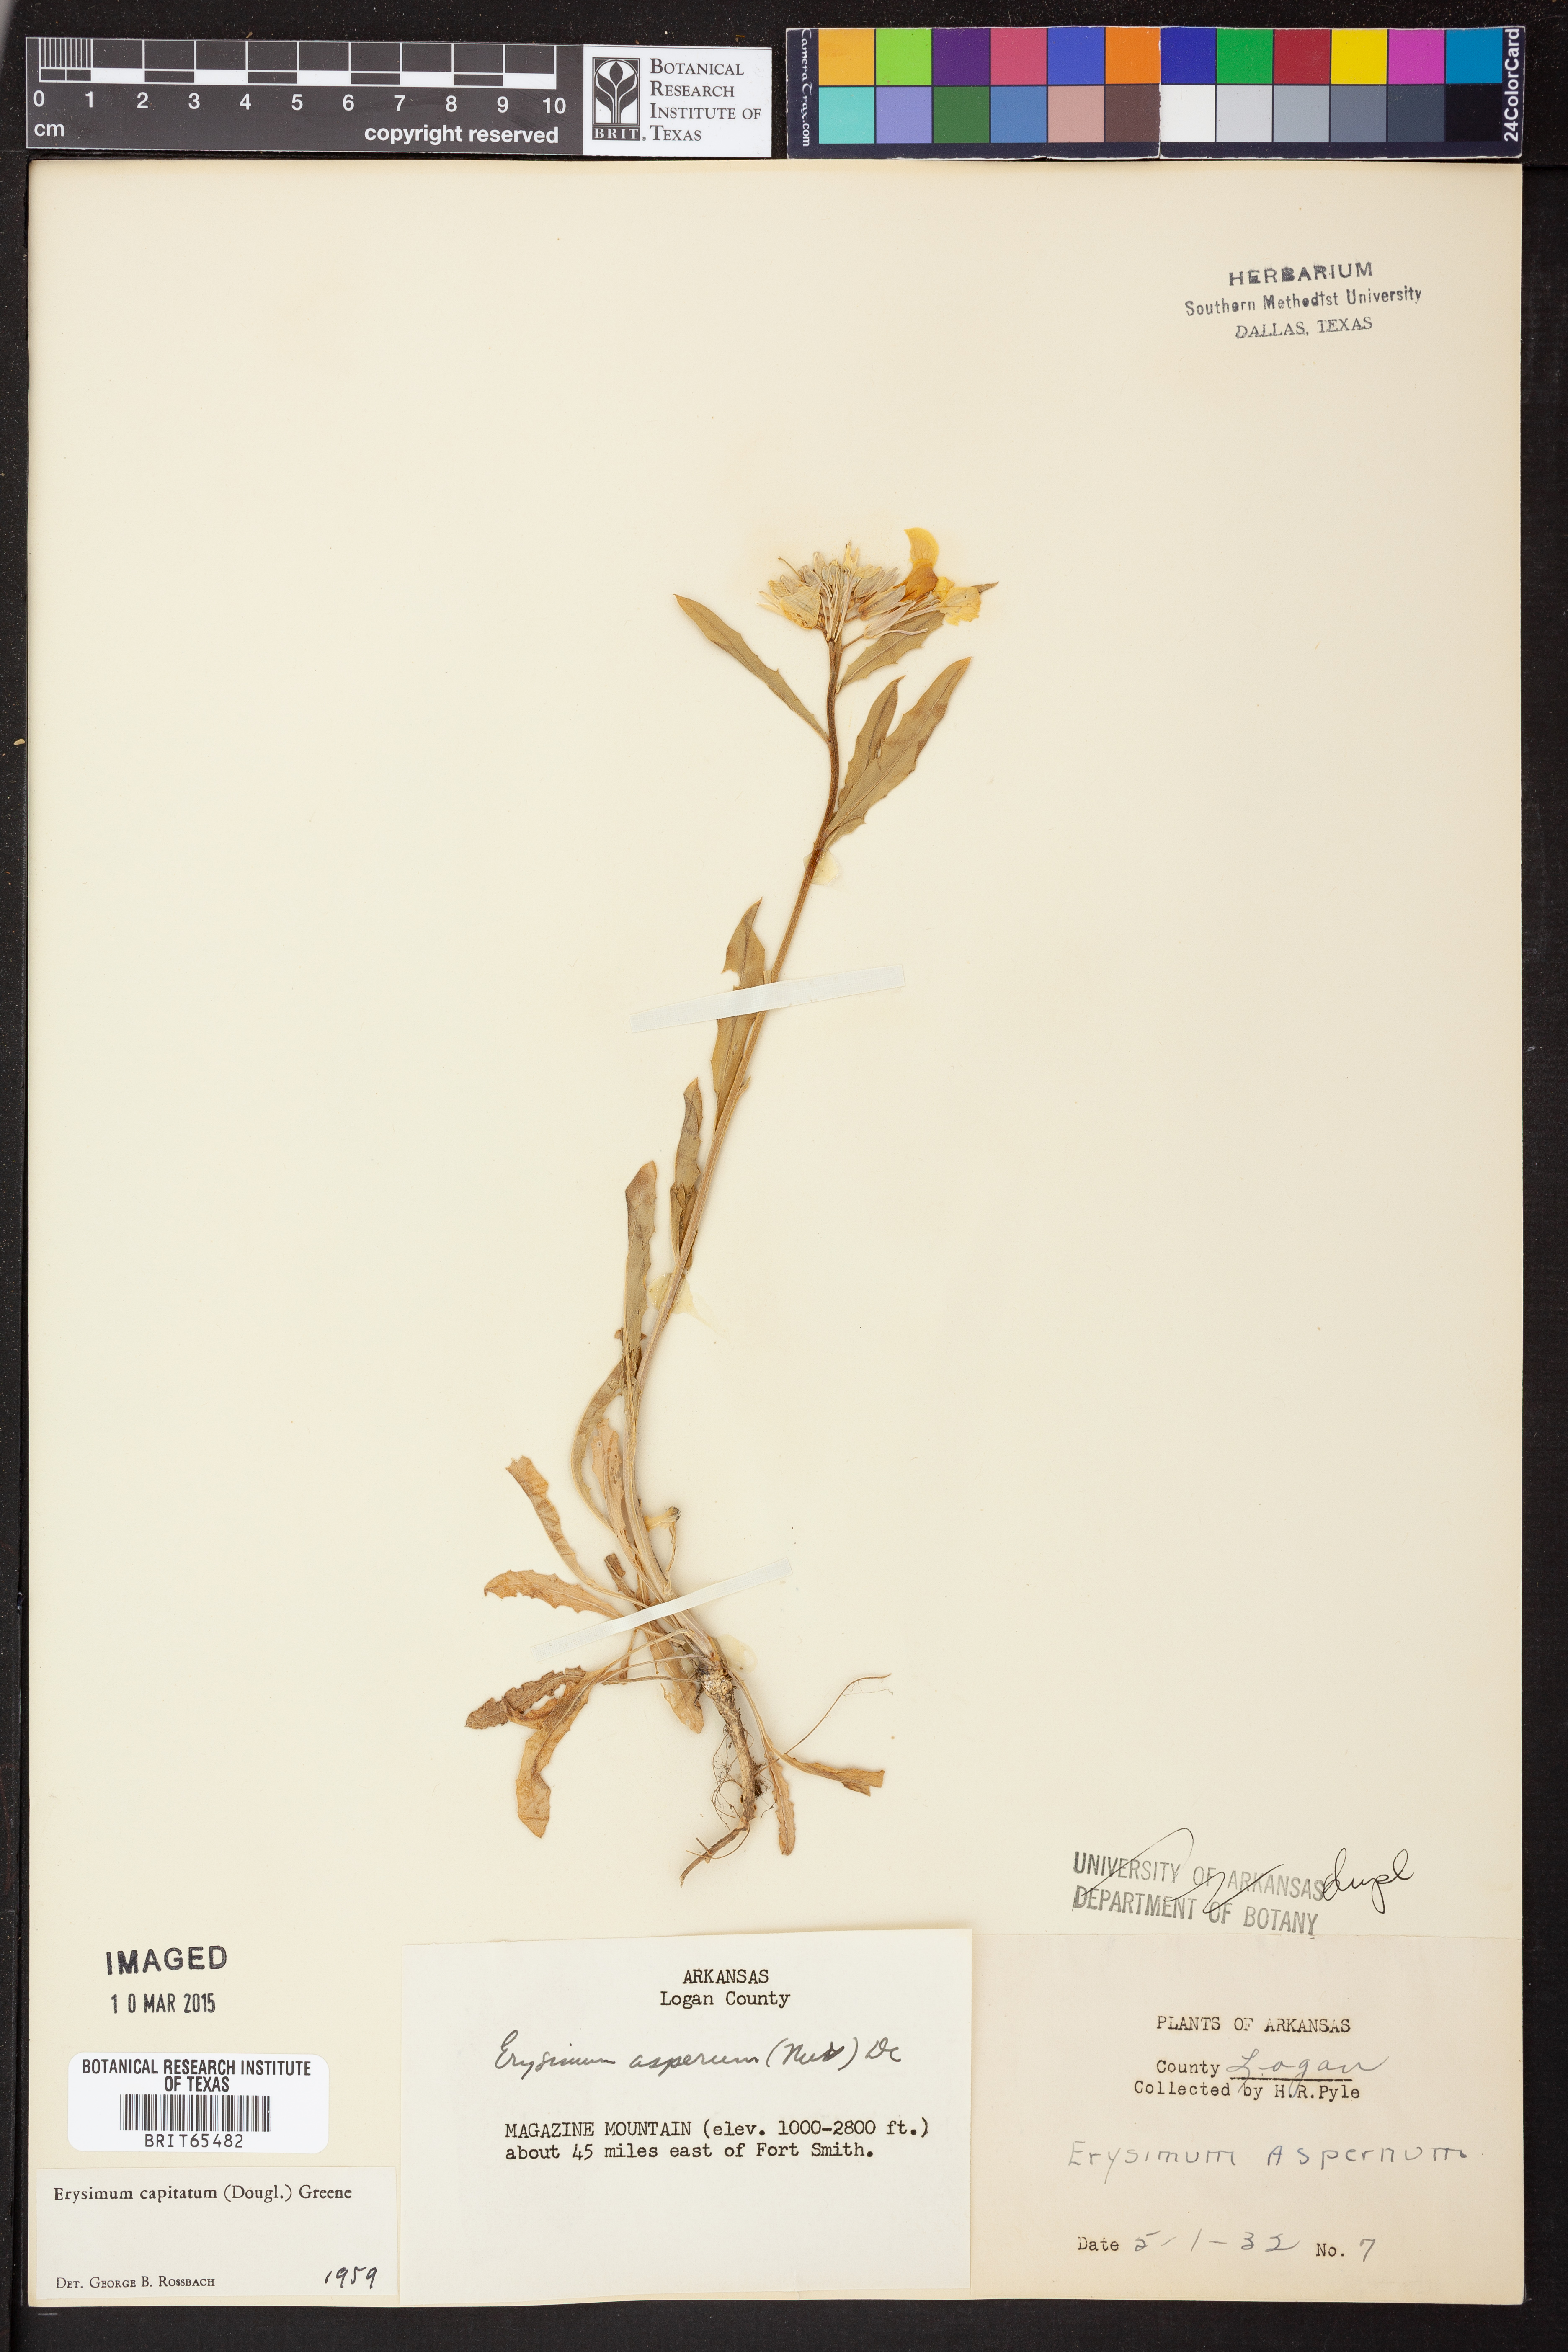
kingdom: Plantae
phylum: Tracheophyta
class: Magnoliopsida
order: Brassicales
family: Brassicaceae
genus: Erysimum
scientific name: Erysimum capitatum
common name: Western wallflower
